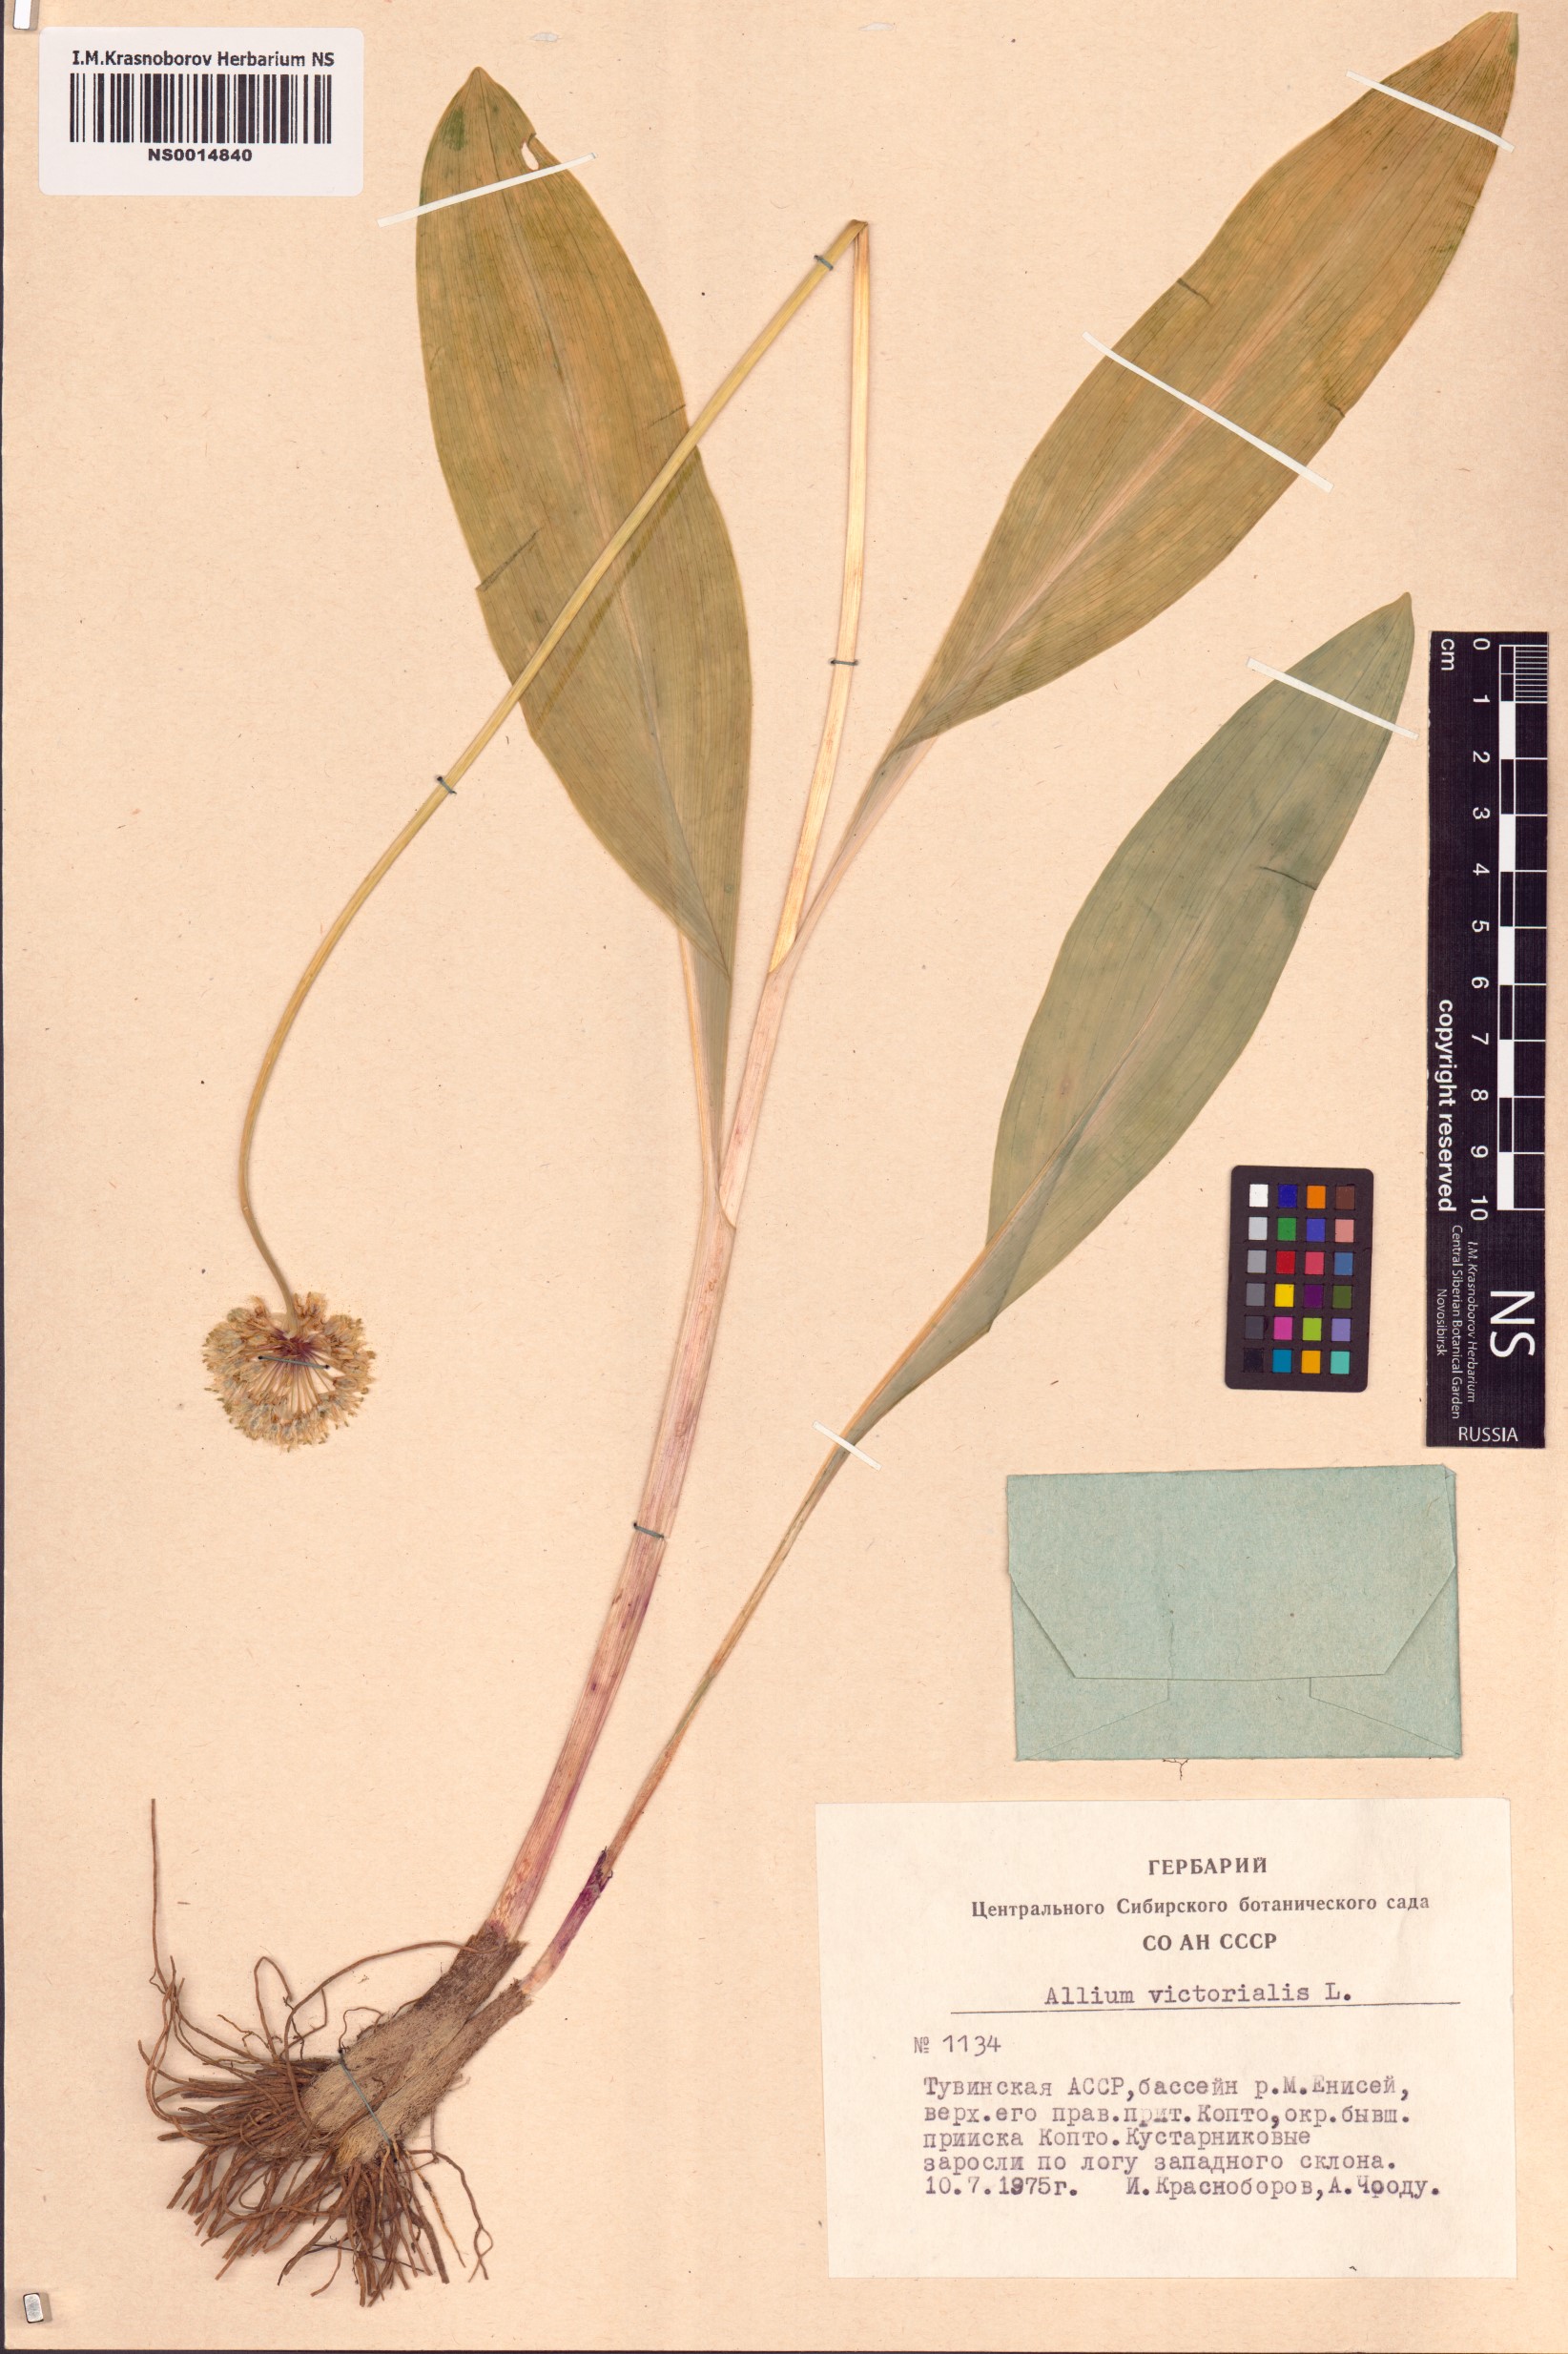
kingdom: Plantae
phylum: Tracheophyta
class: Liliopsida
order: Asparagales
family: Amaryllidaceae
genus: Allium
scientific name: Allium victorialis
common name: Alpine leek
